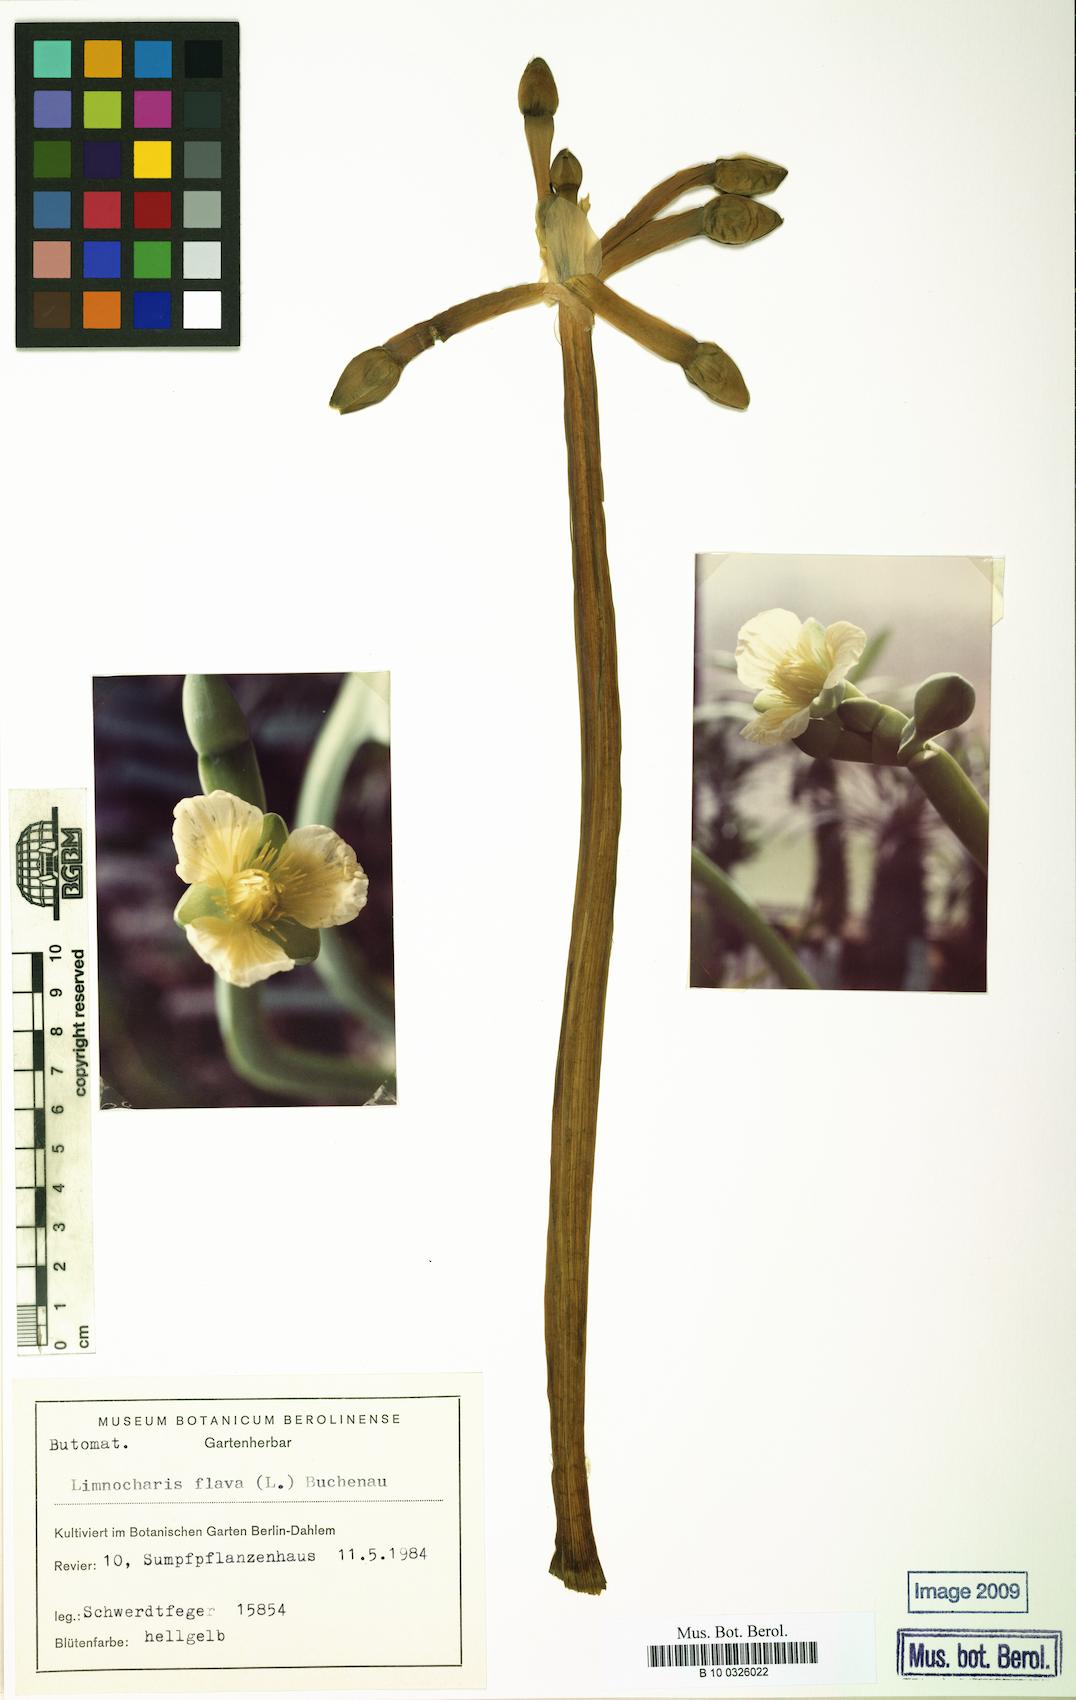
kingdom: Plantae
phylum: Tracheophyta
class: Liliopsida
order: Alismatales
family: Alismataceae
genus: Limnocharis
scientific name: Limnocharis flava
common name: Sawah-flower-rush
